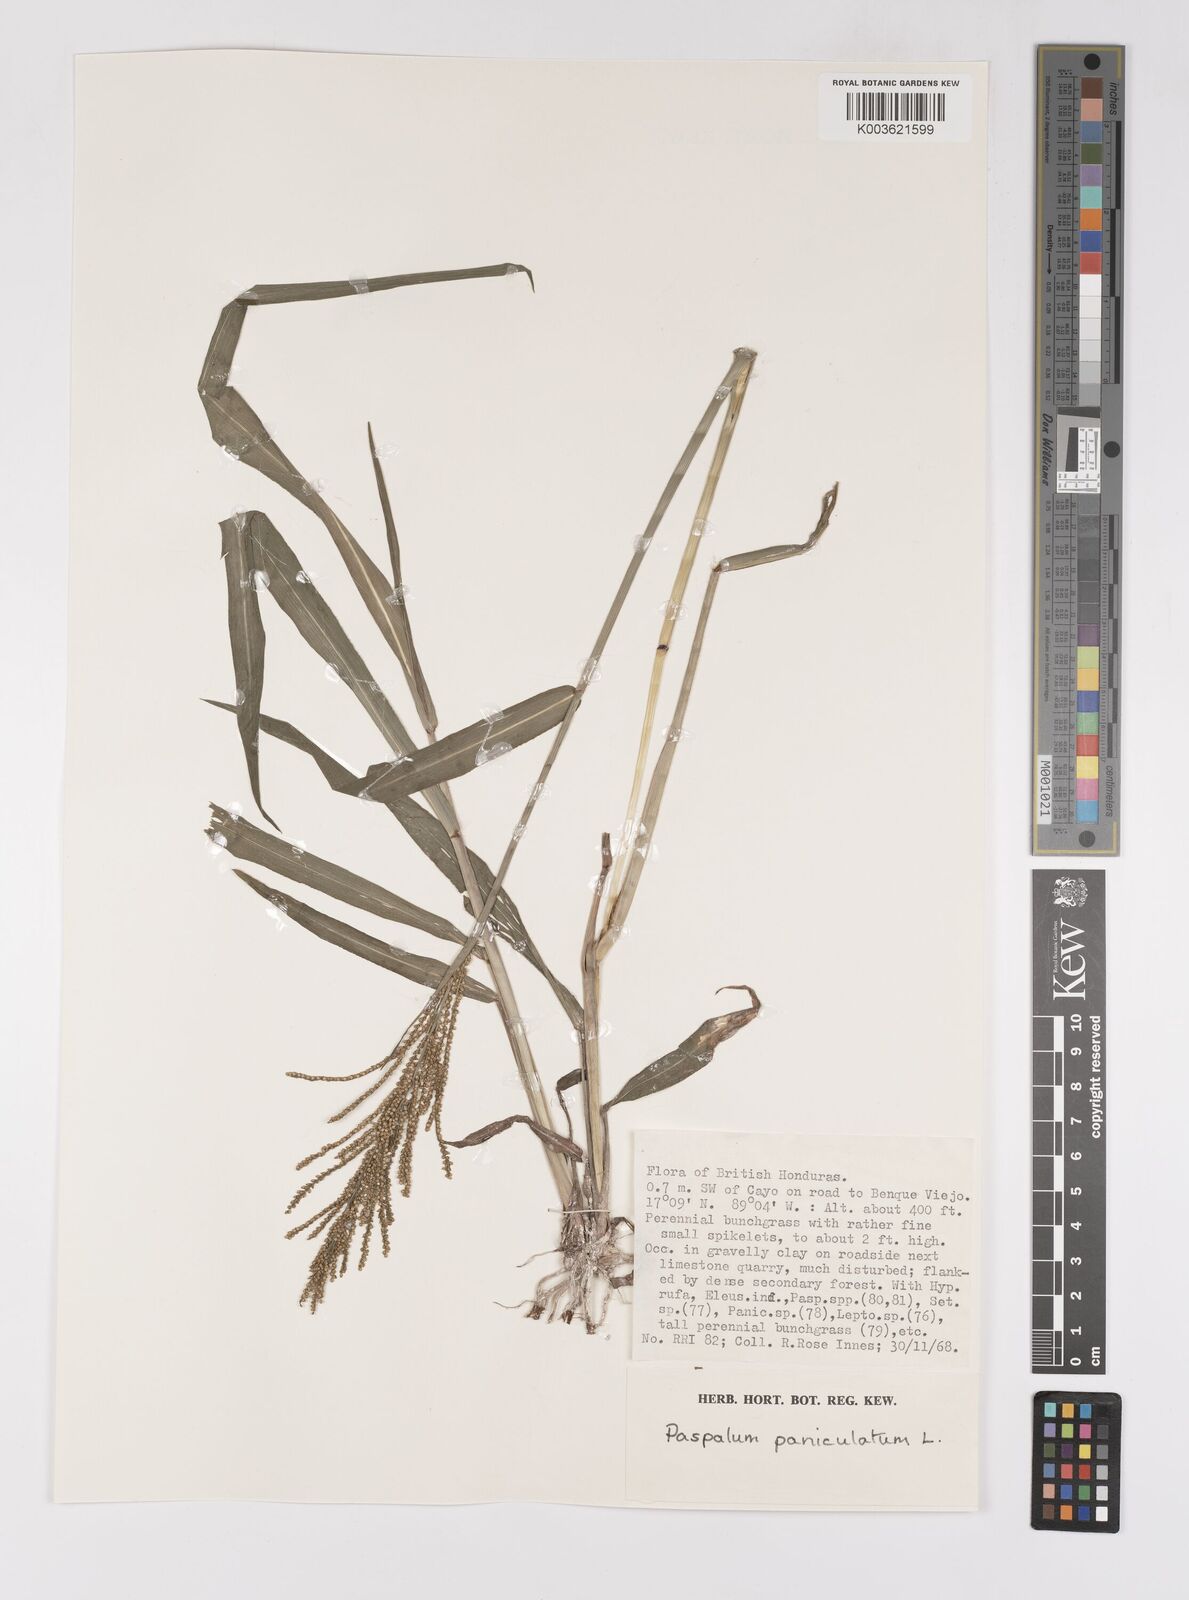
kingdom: Plantae
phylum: Tracheophyta
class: Liliopsida
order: Poales
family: Poaceae
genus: Paspalum
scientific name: Paspalum paniculatum
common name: Arrocillo
